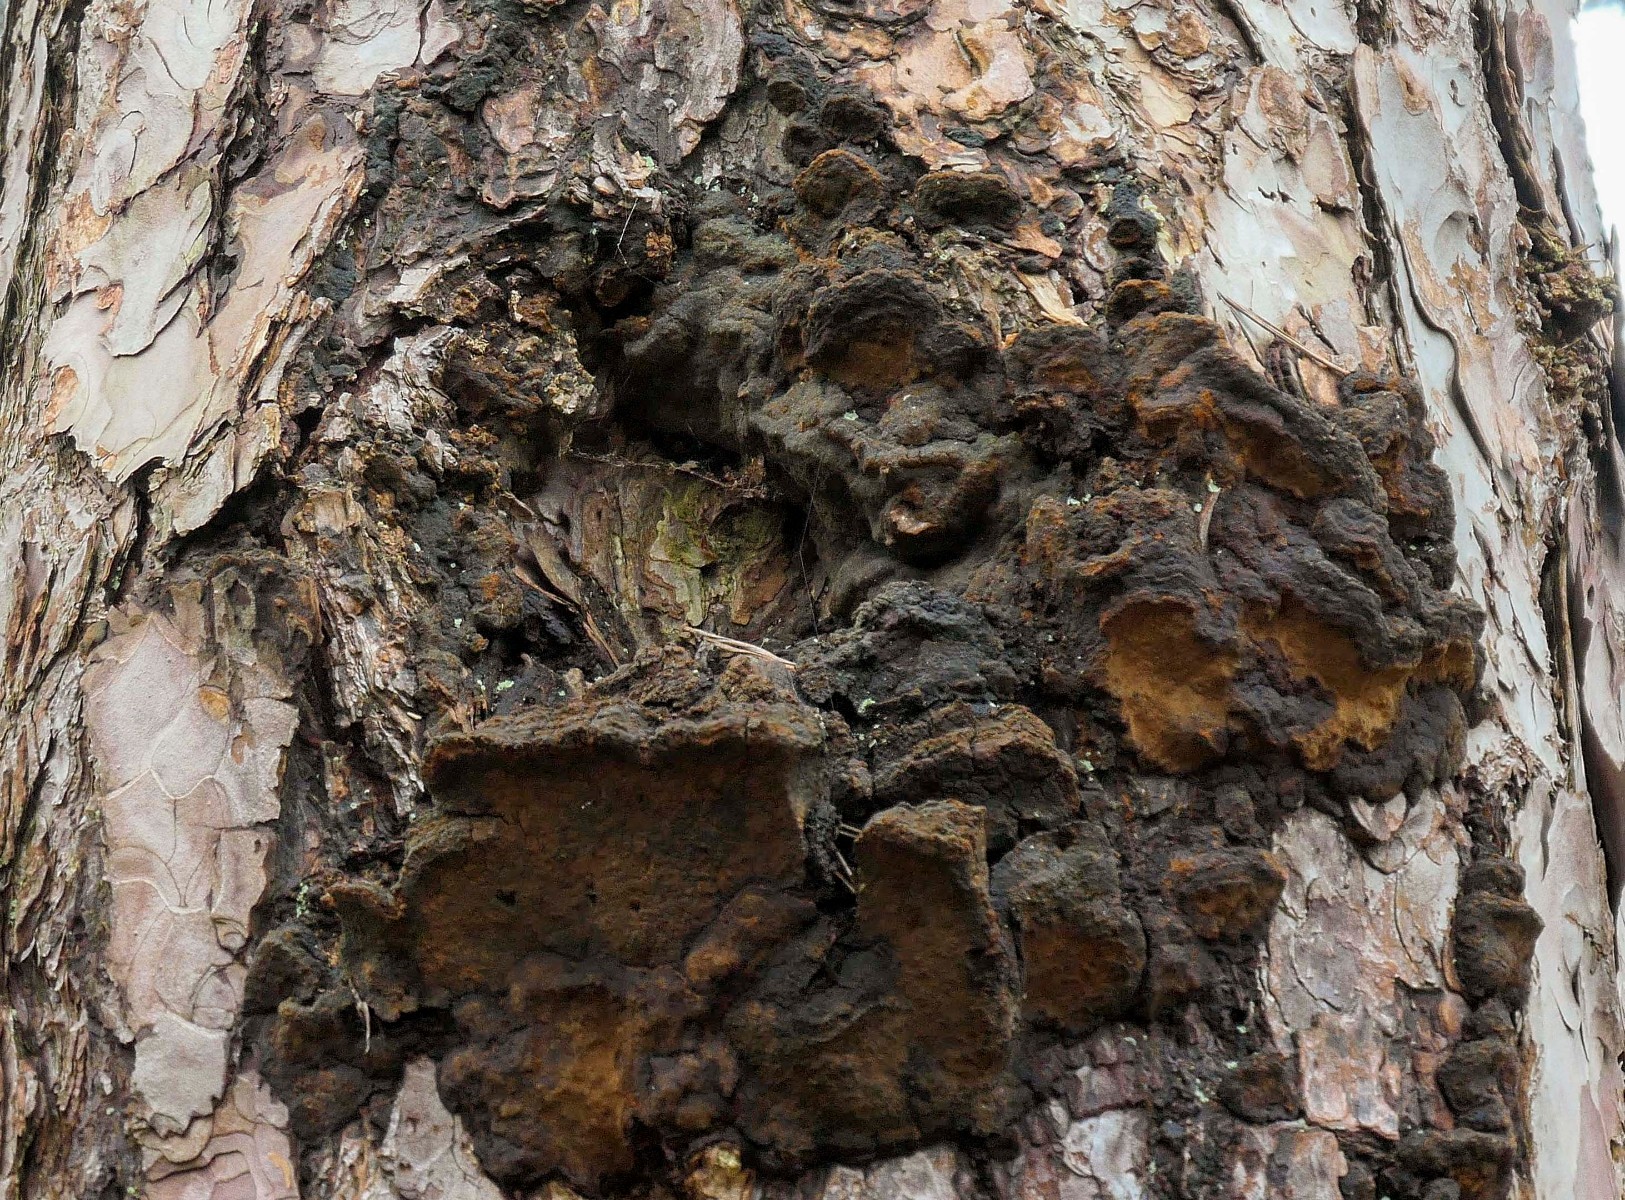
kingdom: Fungi
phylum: Basidiomycota
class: Agaricomycetes
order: Hymenochaetales
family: Hymenochaetaceae
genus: Porodaedalea
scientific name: Porodaedalea pini
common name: fyrre-ildporesvamp
